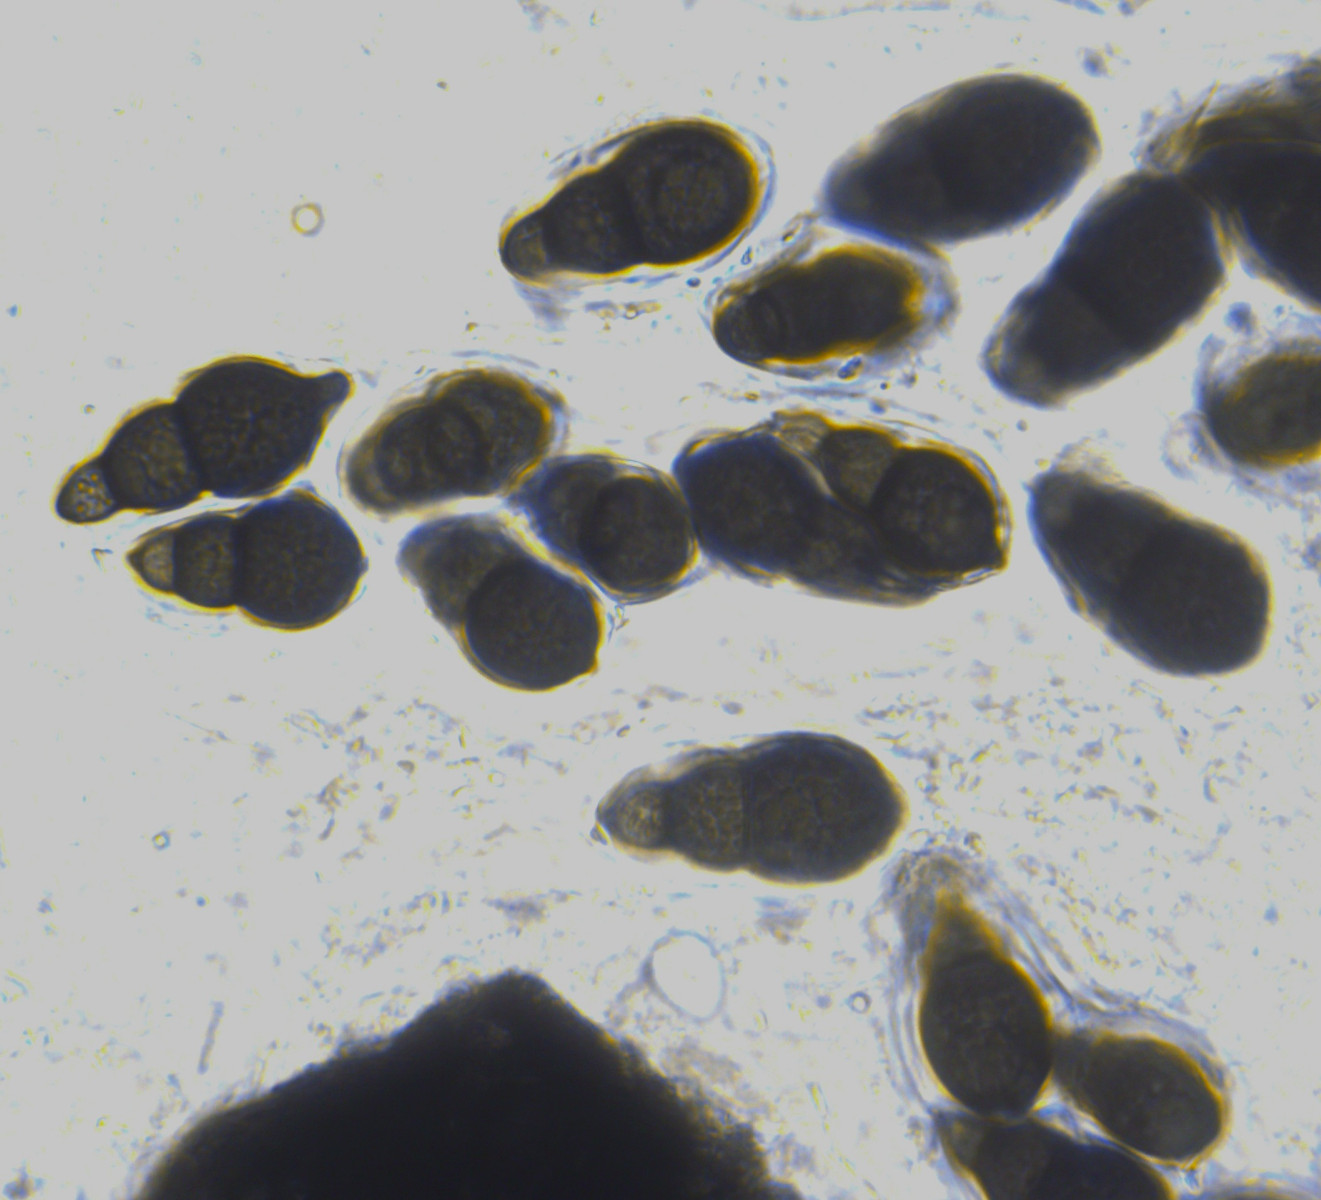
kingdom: Fungi
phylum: Ascomycota
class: Dothideomycetes
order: Pleosporales
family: Pleomassariaceae
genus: Splanchnonema
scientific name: Splanchnonema foedans
